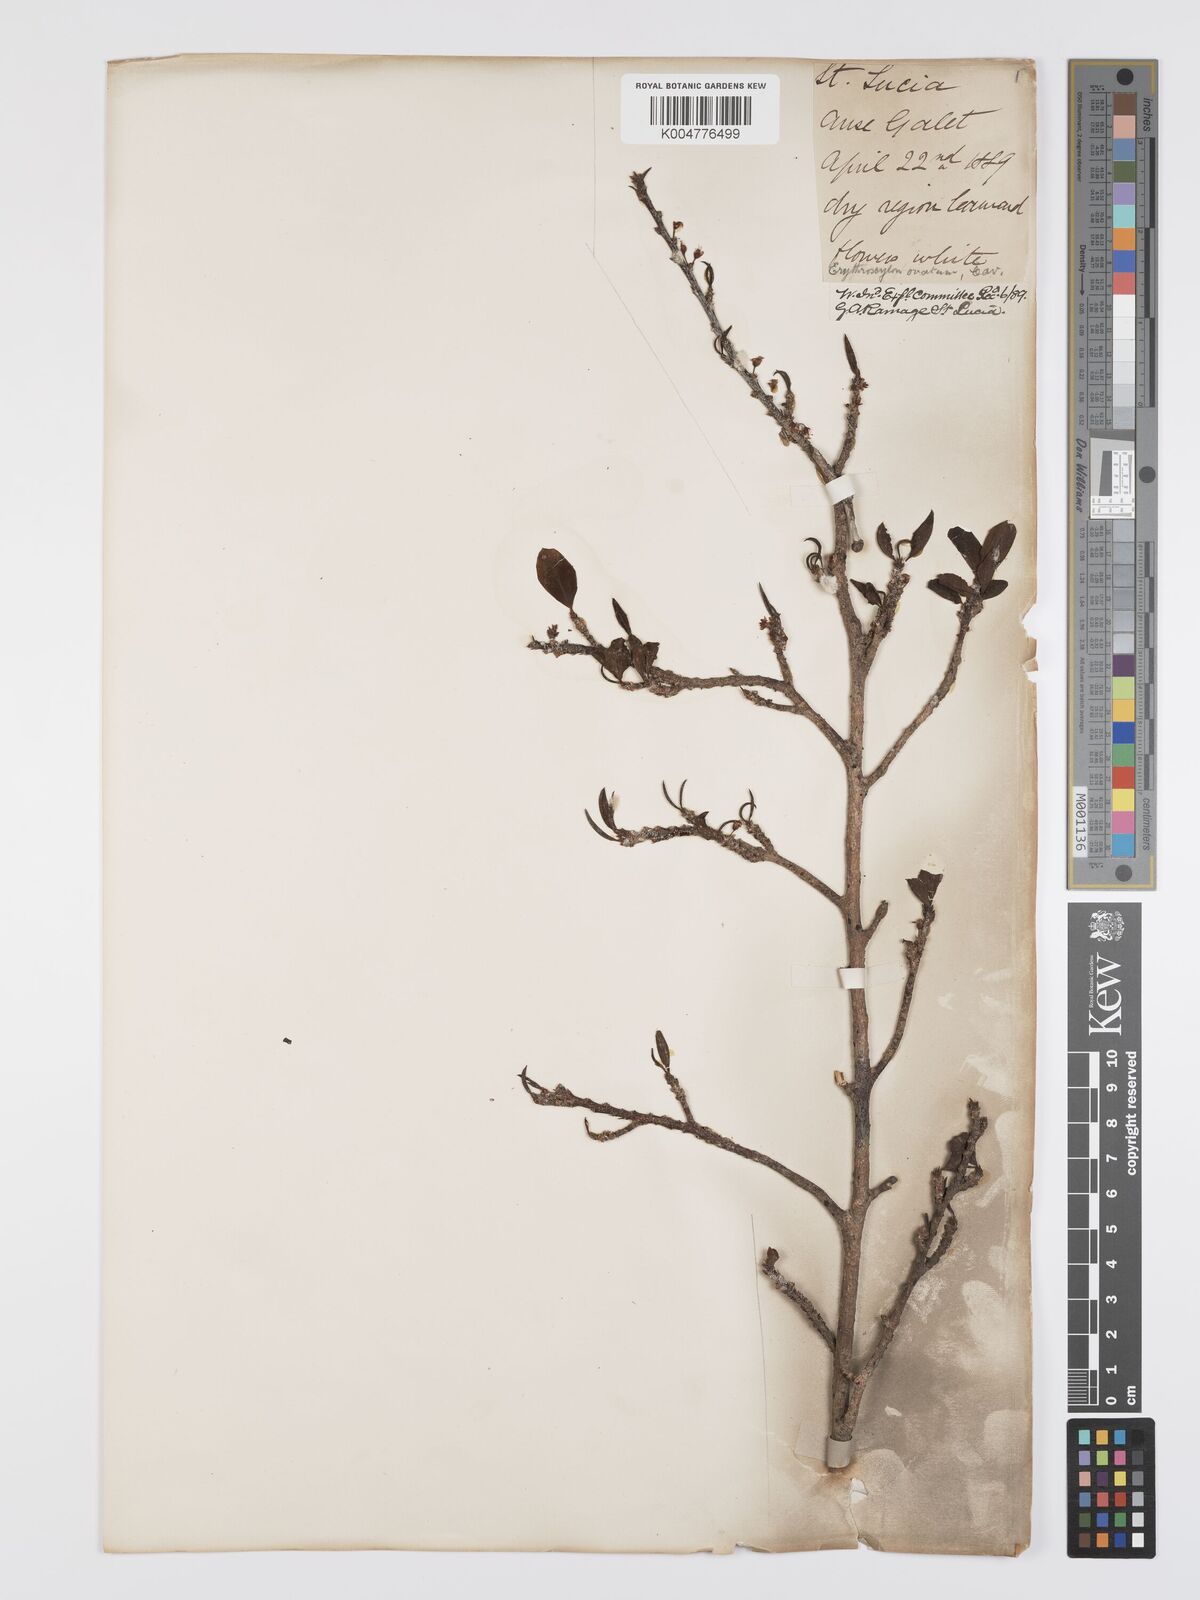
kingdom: Plantae
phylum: Tracheophyta
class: Magnoliopsida
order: Malpighiales
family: Erythroxylaceae
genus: Erythroxylum
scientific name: Erythroxylum havanense
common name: Bracelet
